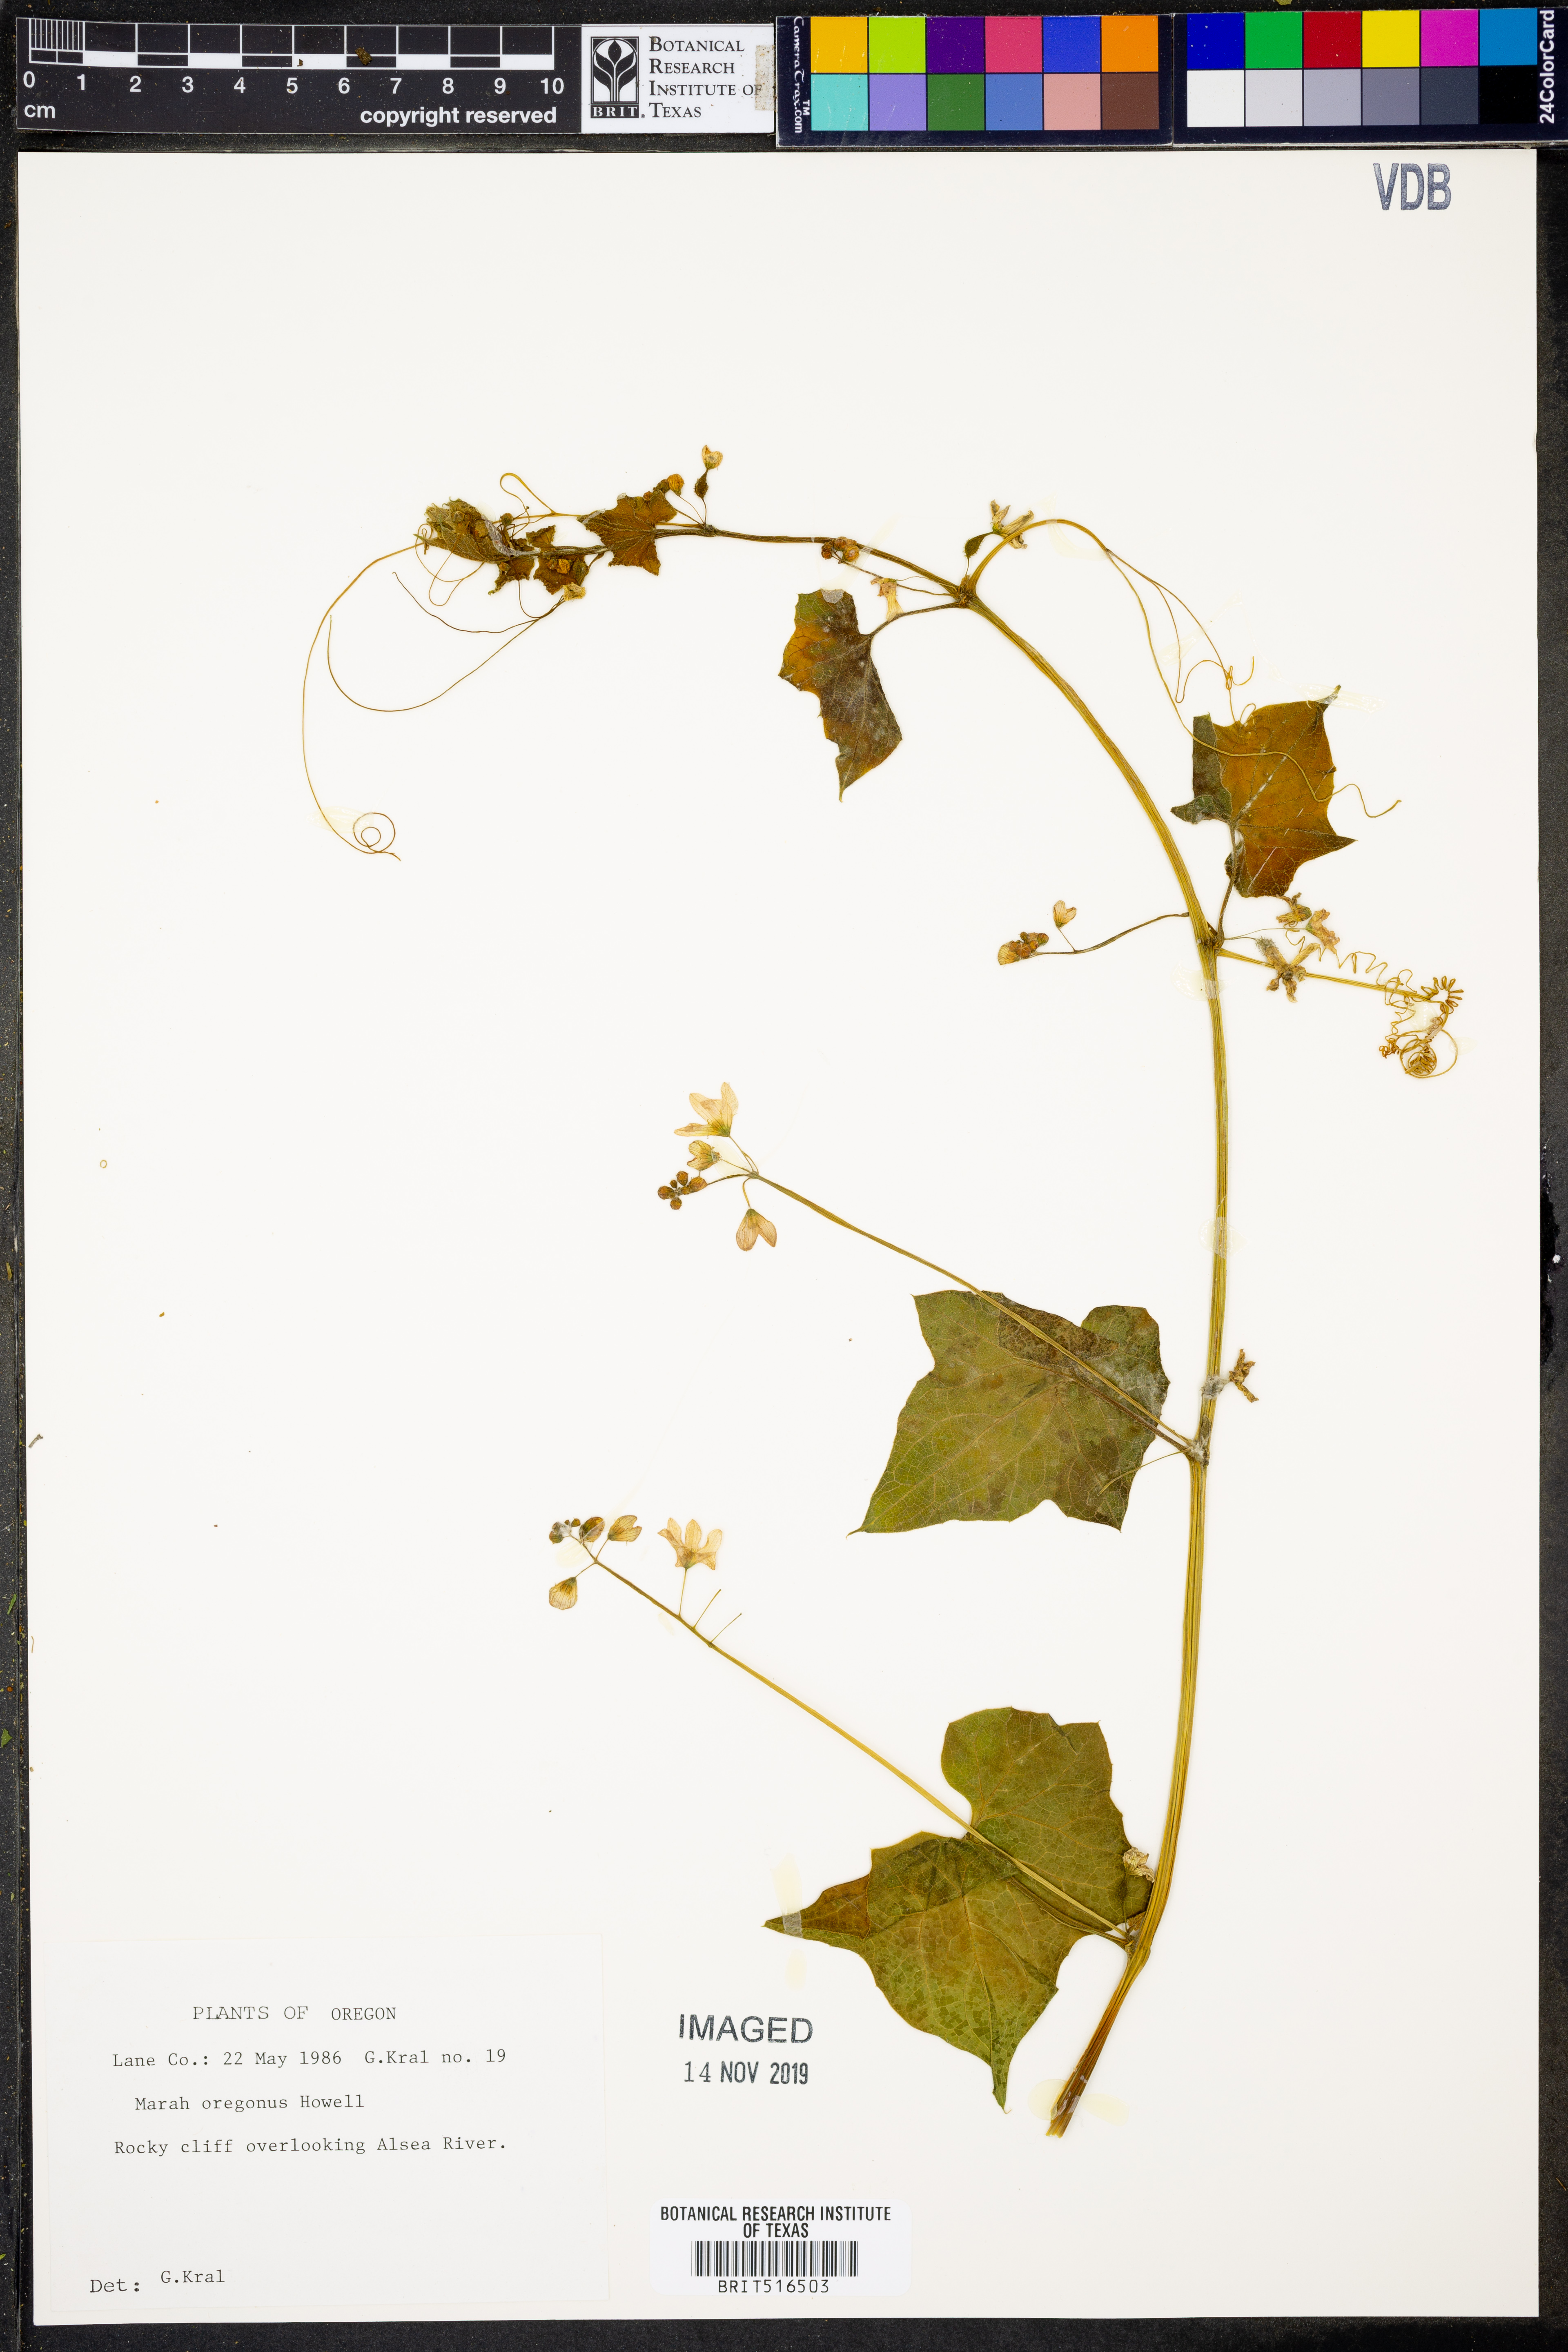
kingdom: Plantae
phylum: Tracheophyta
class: Magnoliopsida
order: Cucurbitales
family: Cucurbitaceae
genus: Marah
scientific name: Marah oregana
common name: Coastal manroot
